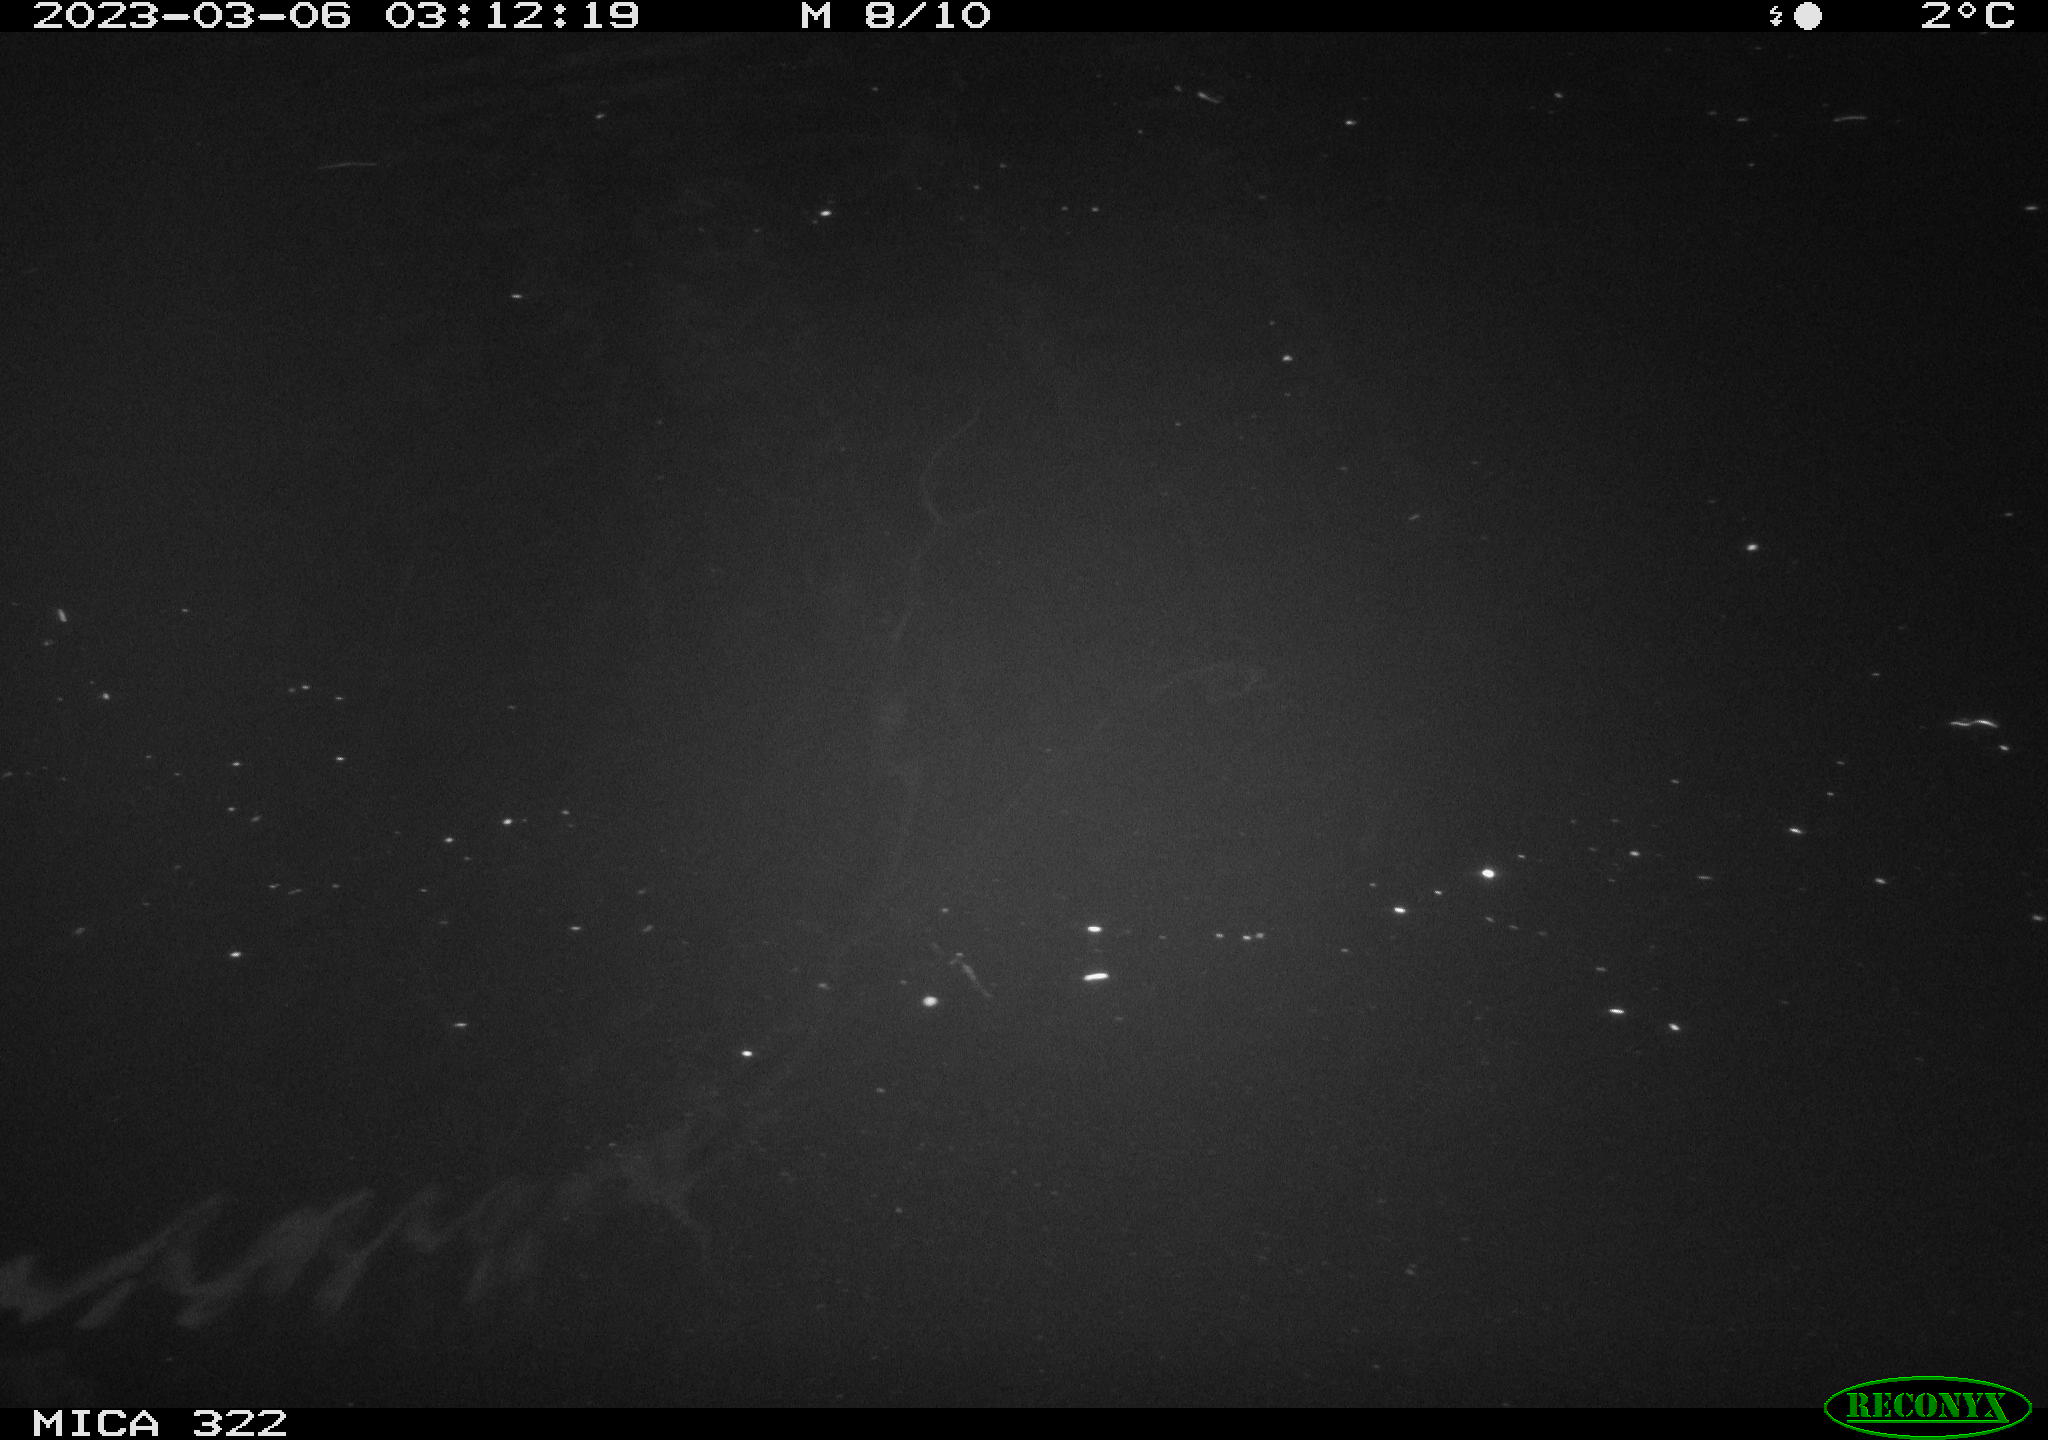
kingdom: Animalia
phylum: Chordata
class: Aves
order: Anseriformes
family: Anatidae
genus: Anas
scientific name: Anas
